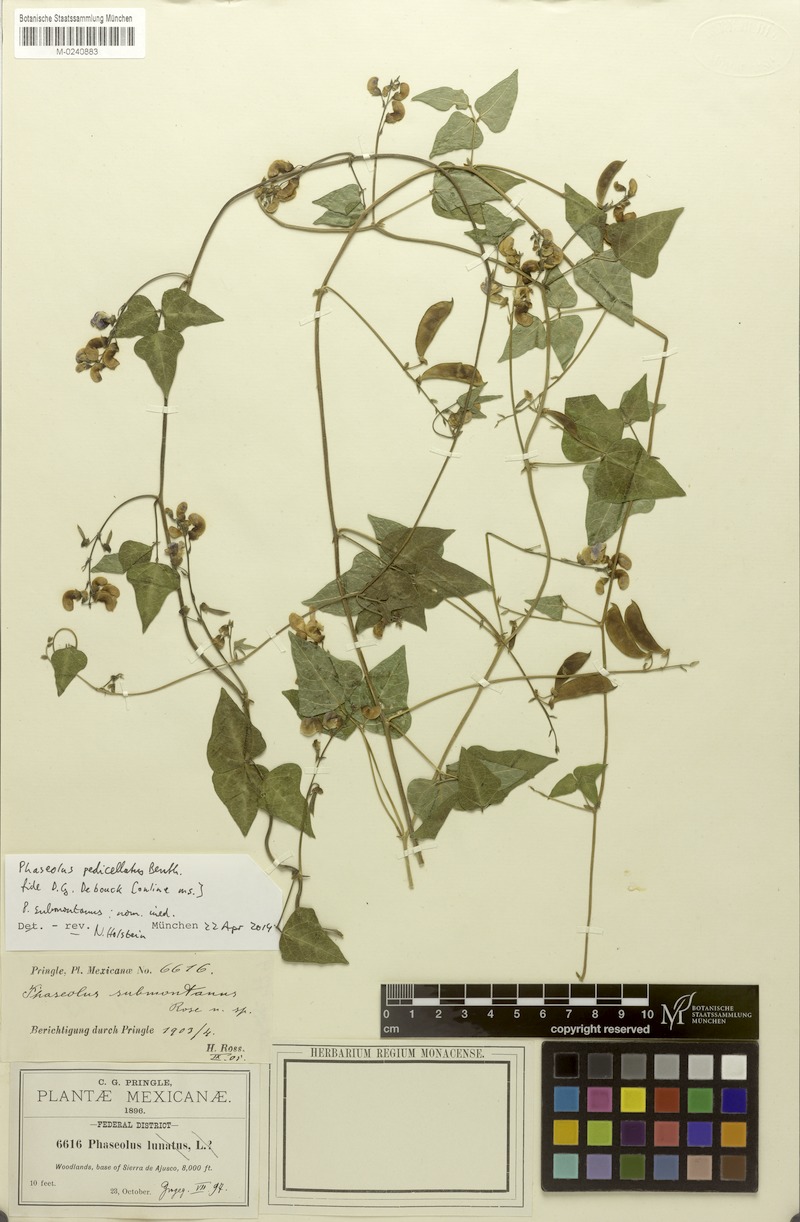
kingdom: Plantae
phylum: Tracheophyta
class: Magnoliopsida
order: Fabales
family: Fabaceae
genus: Phaseolus
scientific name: Phaseolus pedicellatus
